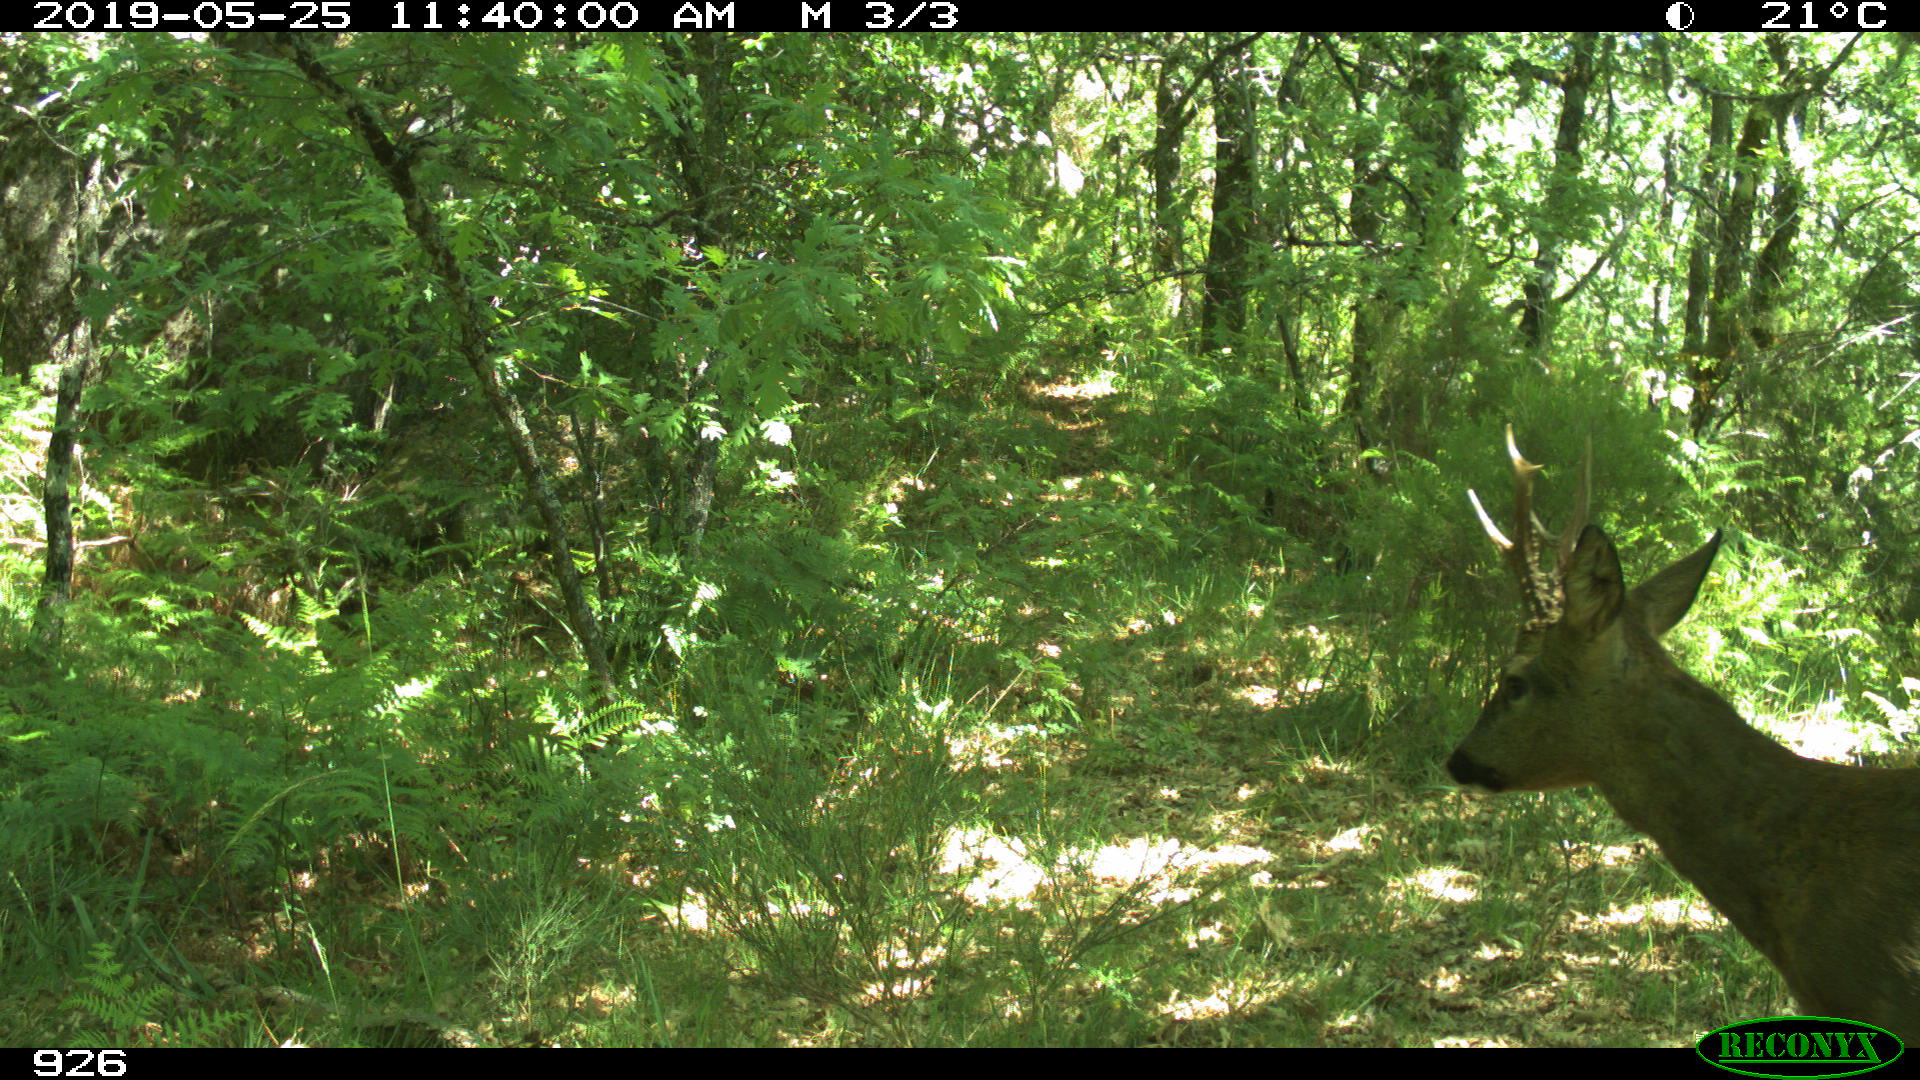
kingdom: Animalia
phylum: Chordata
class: Mammalia
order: Artiodactyla
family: Cervidae
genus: Capreolus
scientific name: Capreolus capreolus
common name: Western roe deer
